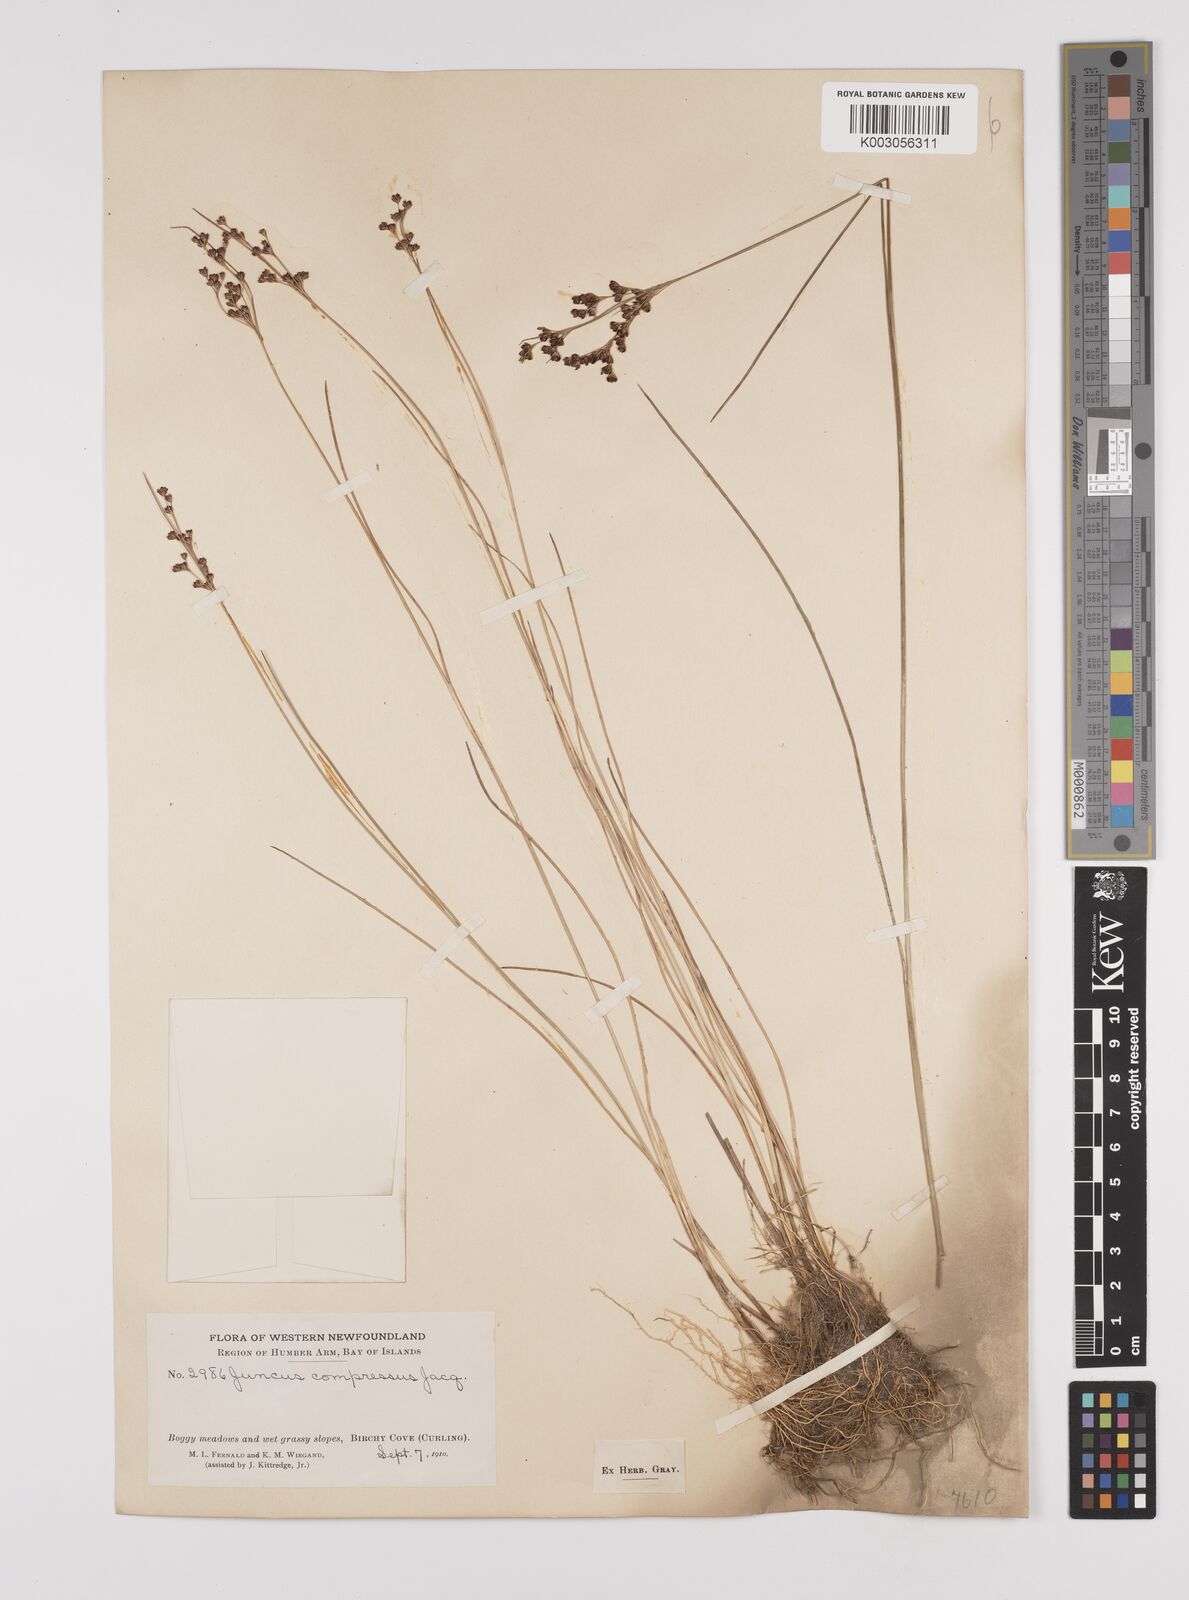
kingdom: Plantae
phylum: Tracheophyta
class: Liliopsida
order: Poales
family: Juncaceae
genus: Juncus
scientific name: Juncus compressus
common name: Round-fruited rush
